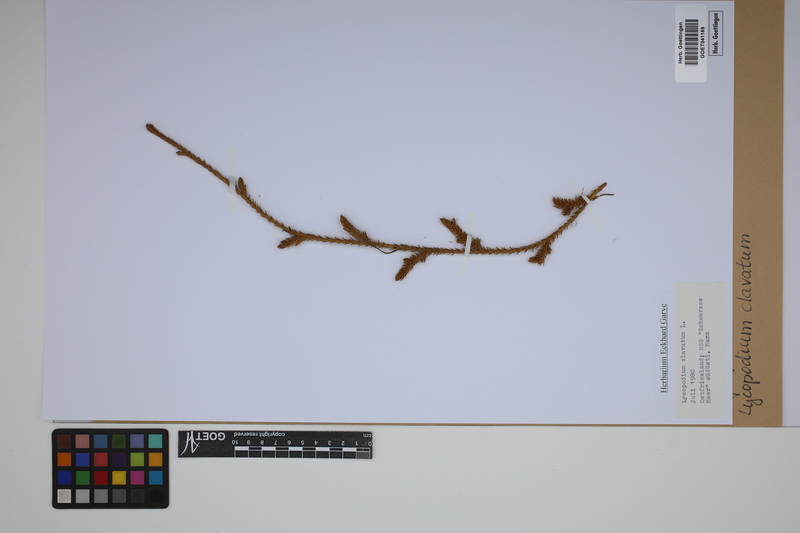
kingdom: Plantae
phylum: Tracheophyta
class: Lycopodiopsida
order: Lycopodiales
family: Lycopodiaceae
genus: Lycopodium
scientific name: Lycopodium clavatum
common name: Stag's-horn clubmoss
